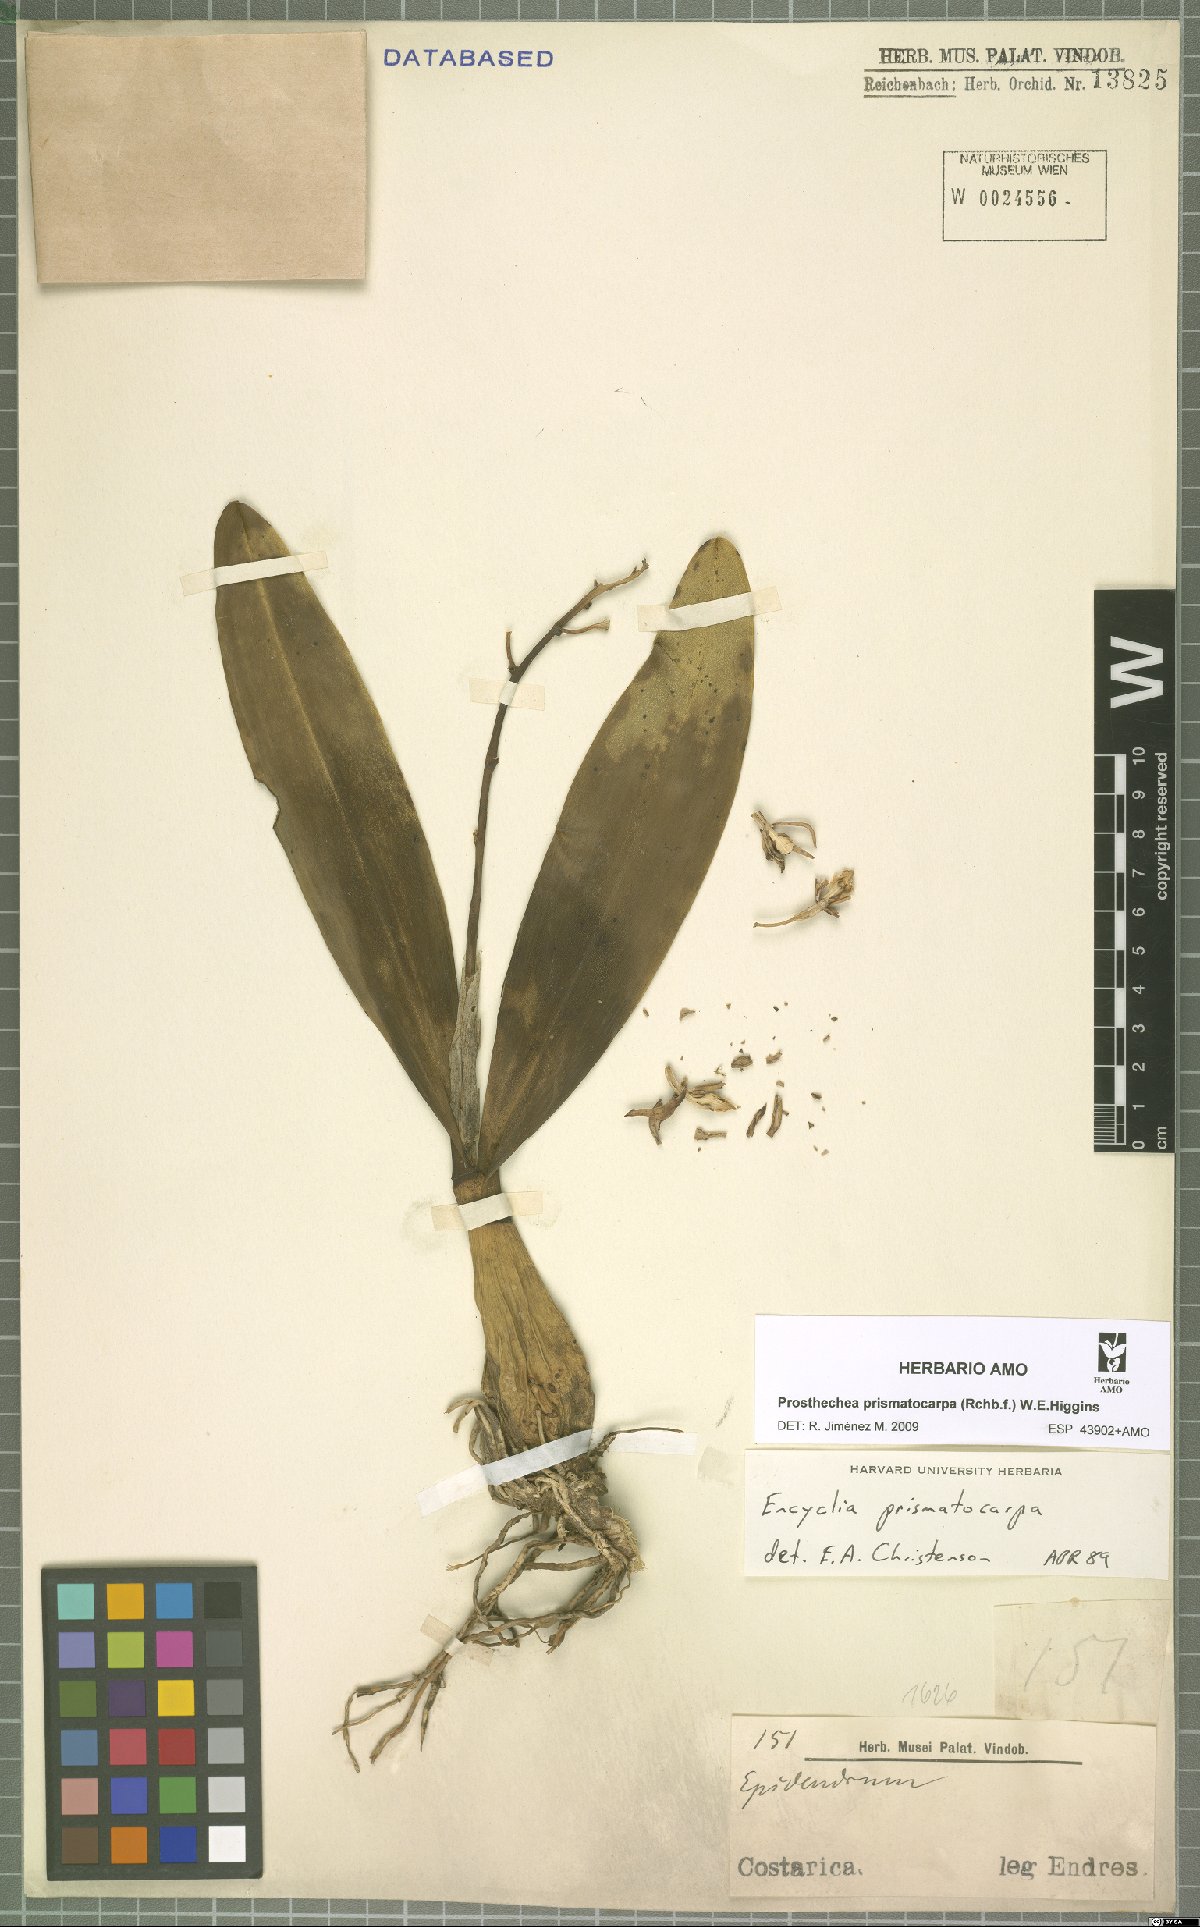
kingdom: Plantae
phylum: Tracheophyta
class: Liliopsida
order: Asparagales
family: Orchidaceae
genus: Prosthechea
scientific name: Prosthechea prismatocarpa
